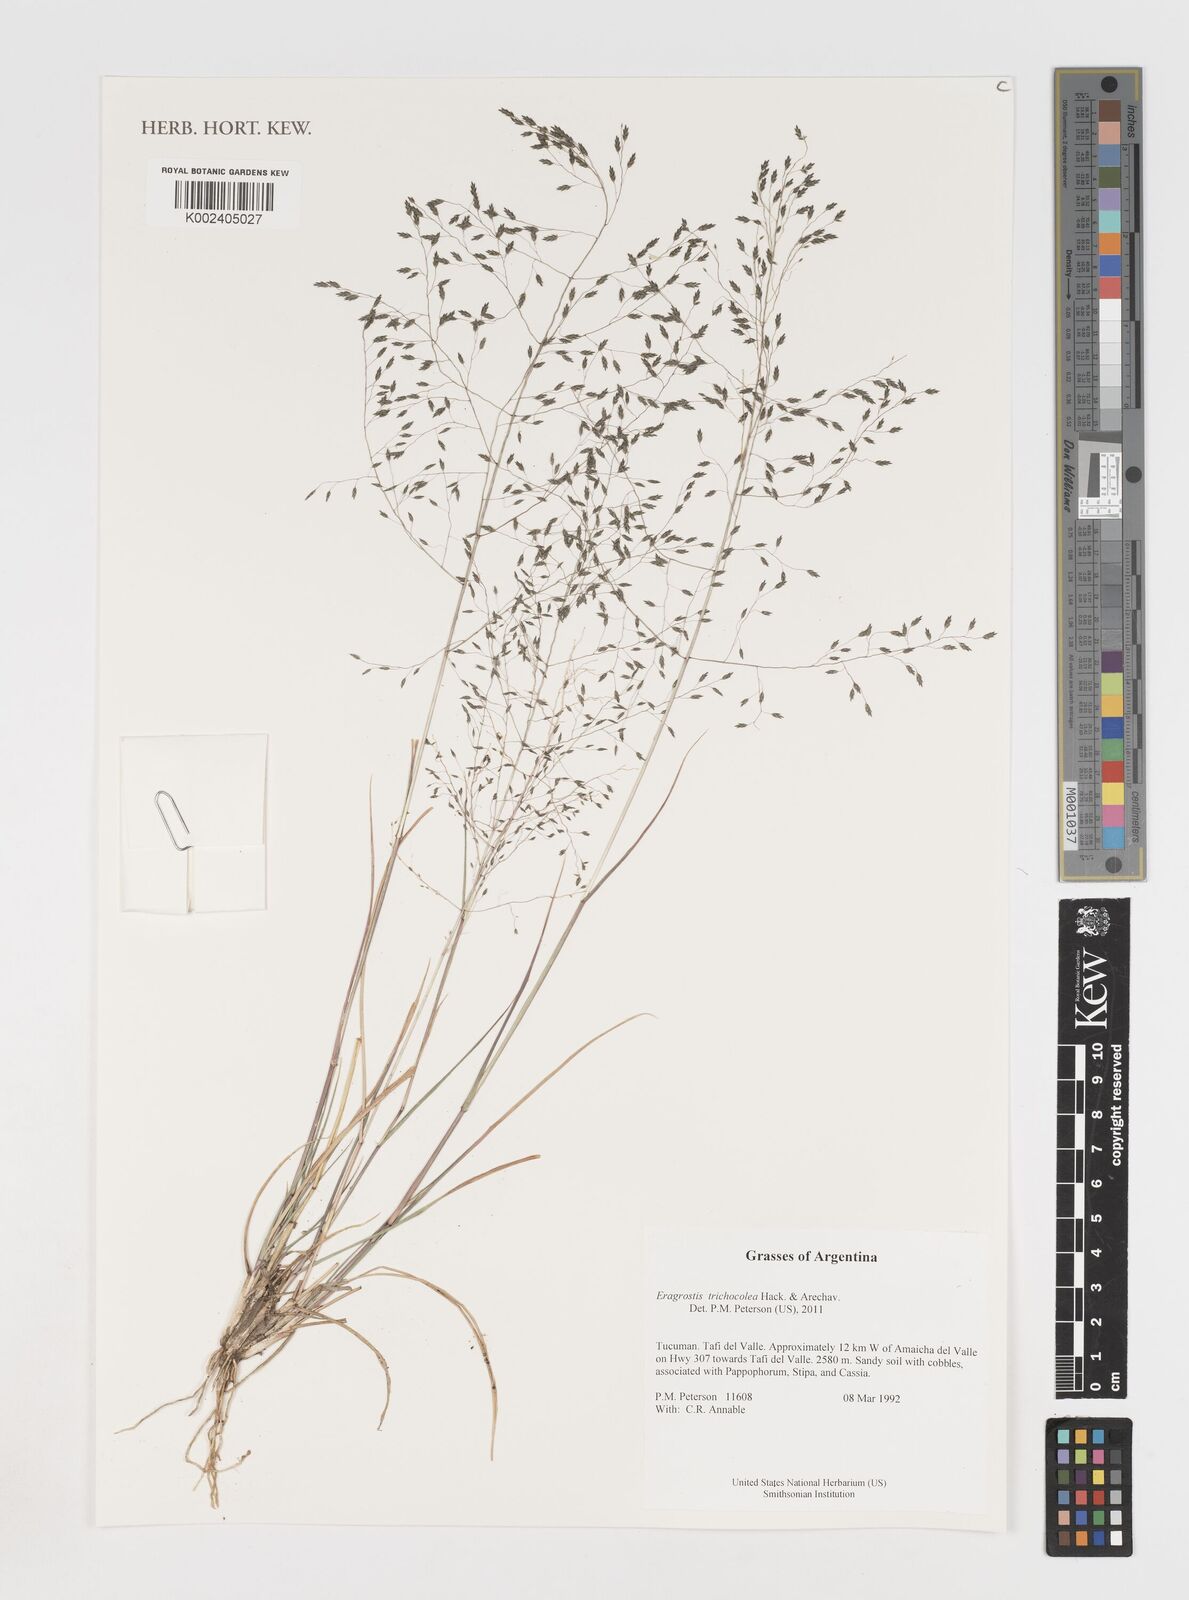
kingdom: Plantae
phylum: Tracheophyta
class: Liliopsida
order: Poales
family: Poaceae
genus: Eragrostis
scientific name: Eragrostis trichocolea
